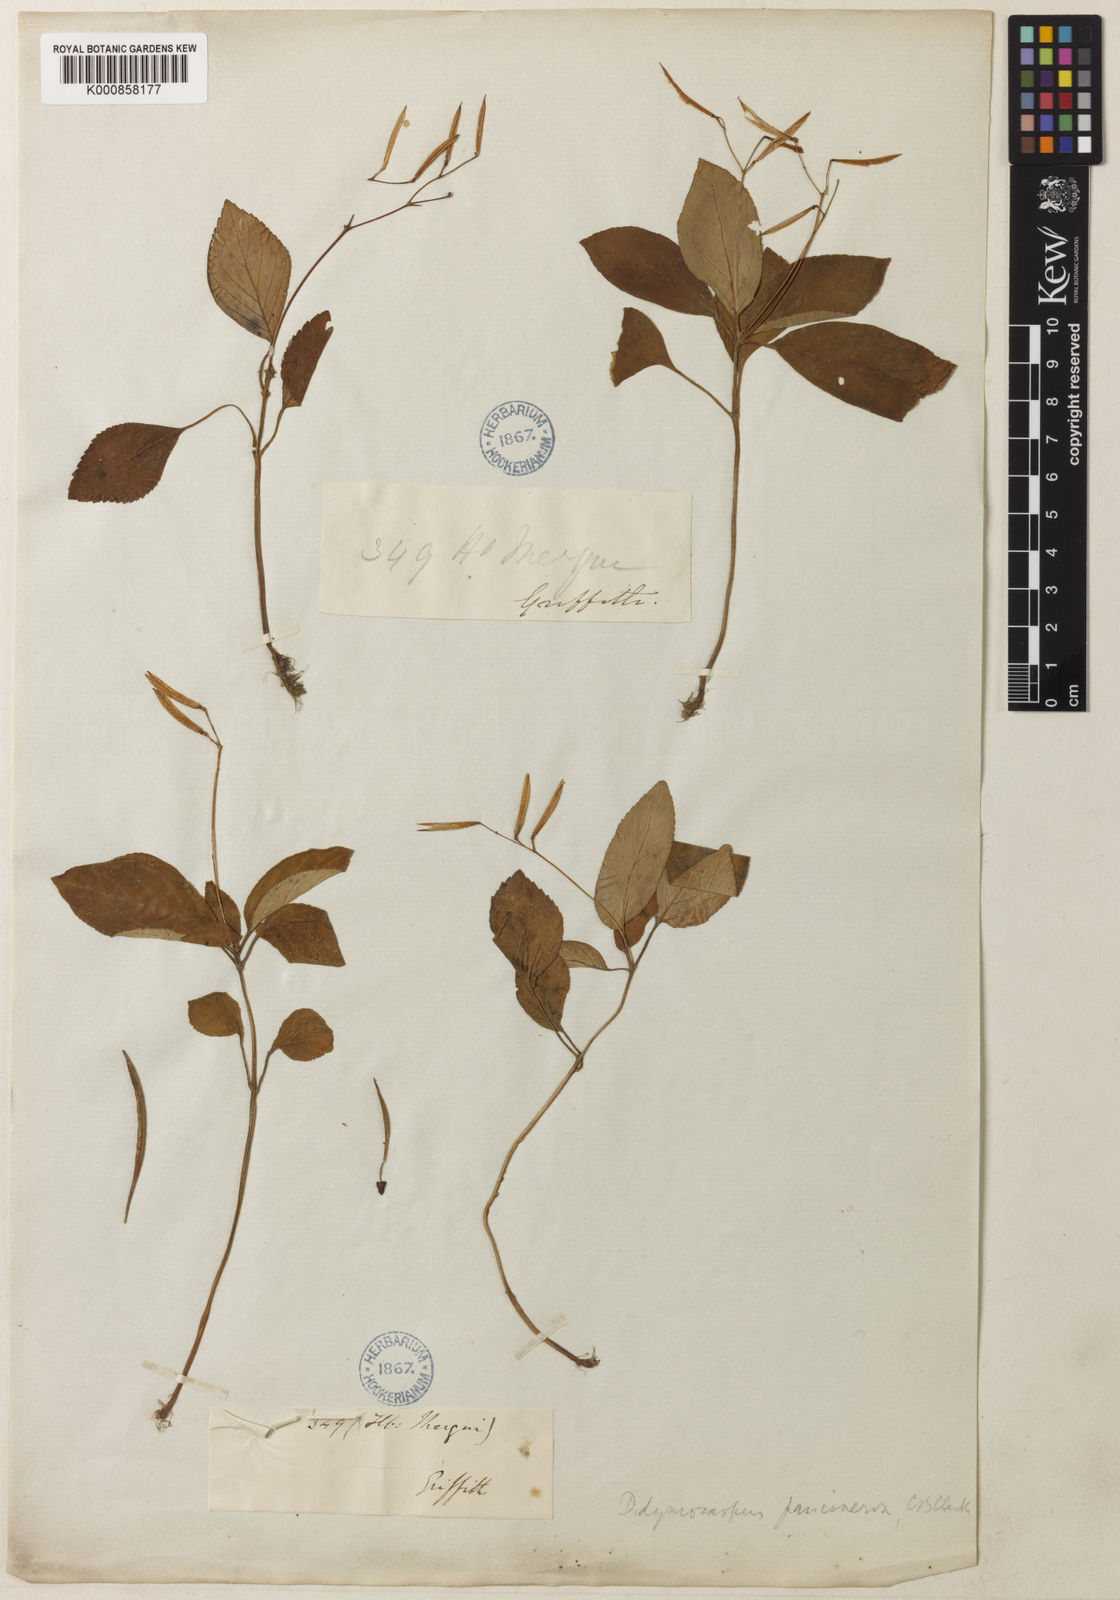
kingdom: Plantae
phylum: Tracheophyta
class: Magnoliopsida
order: Lamiales
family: Gesneriaceae
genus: Henckelia
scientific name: Henckelia
